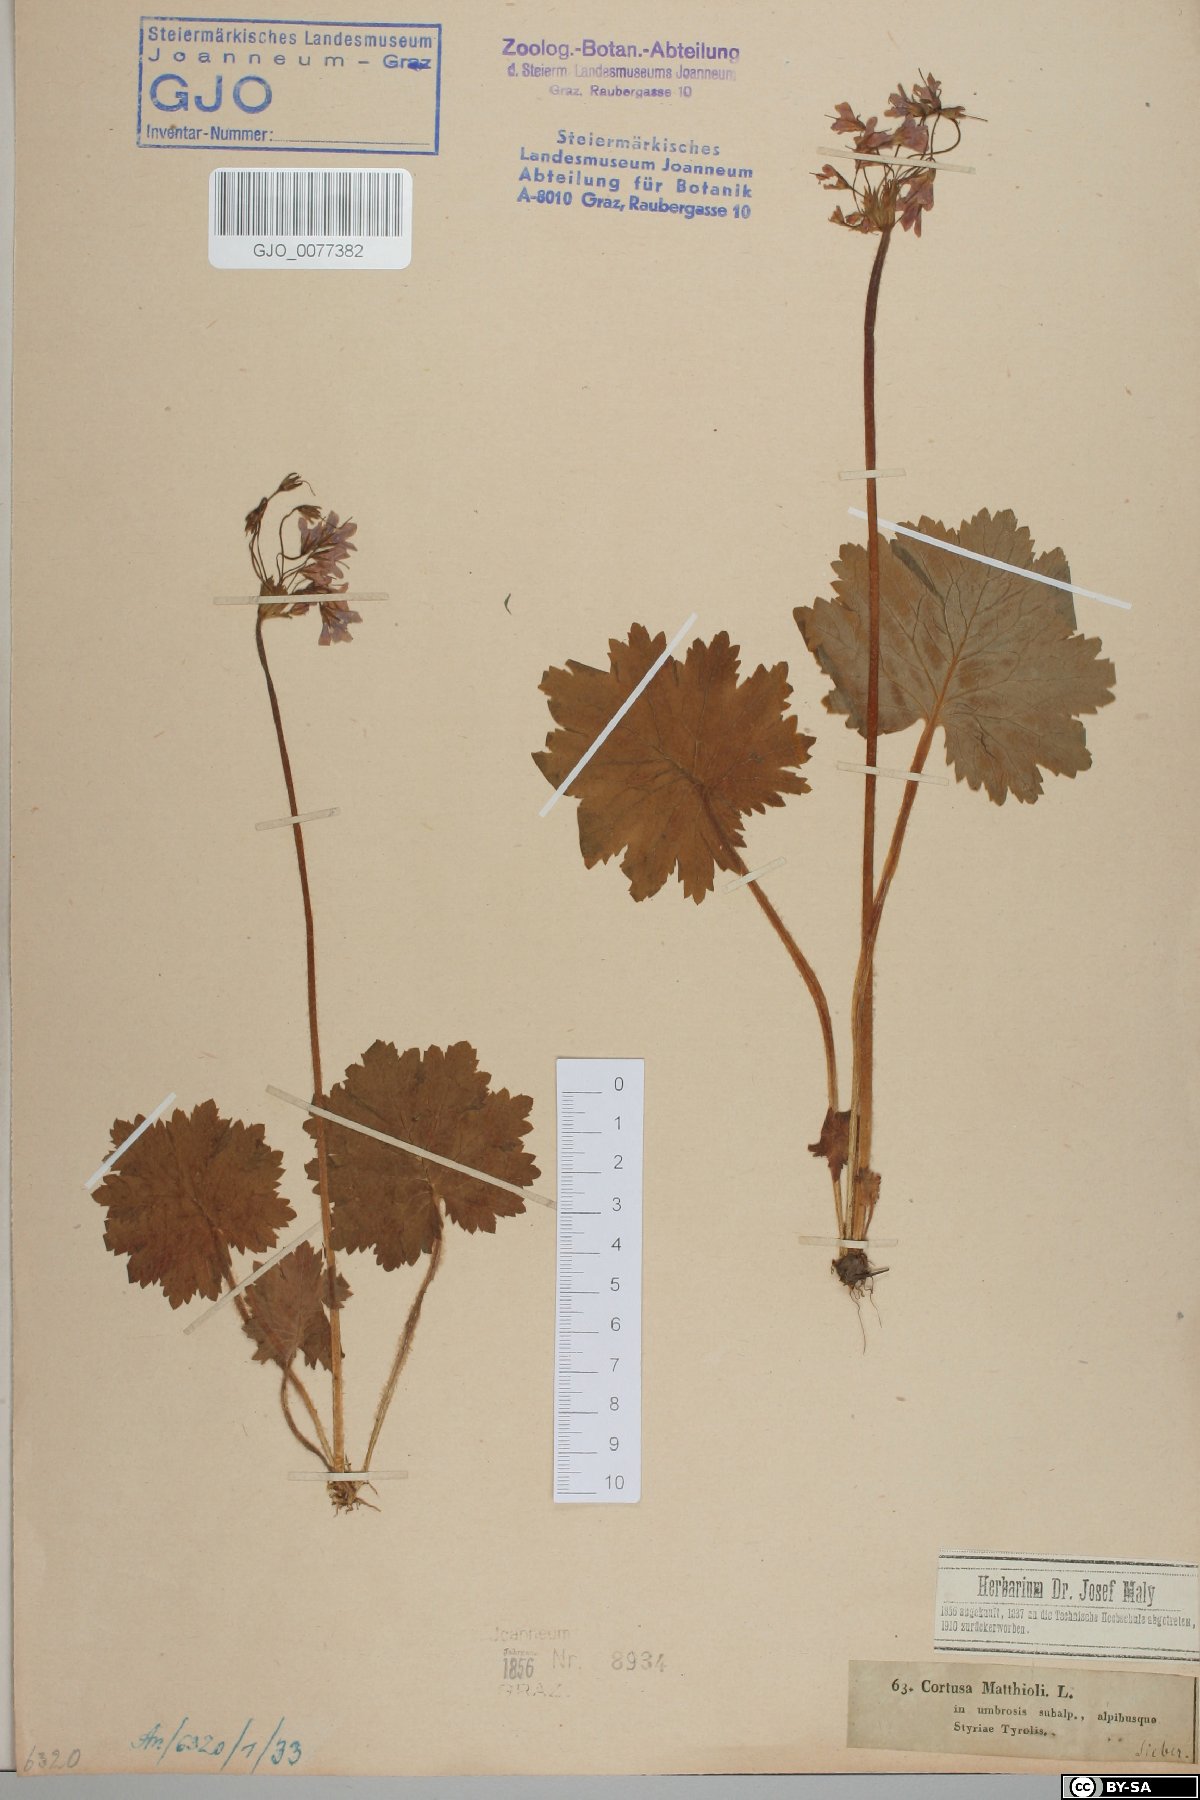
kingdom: Plantae
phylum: Tracheophyta
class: Magnoliopsida
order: Ericales
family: Primulaceae
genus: Primula
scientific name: Primula matthioli
